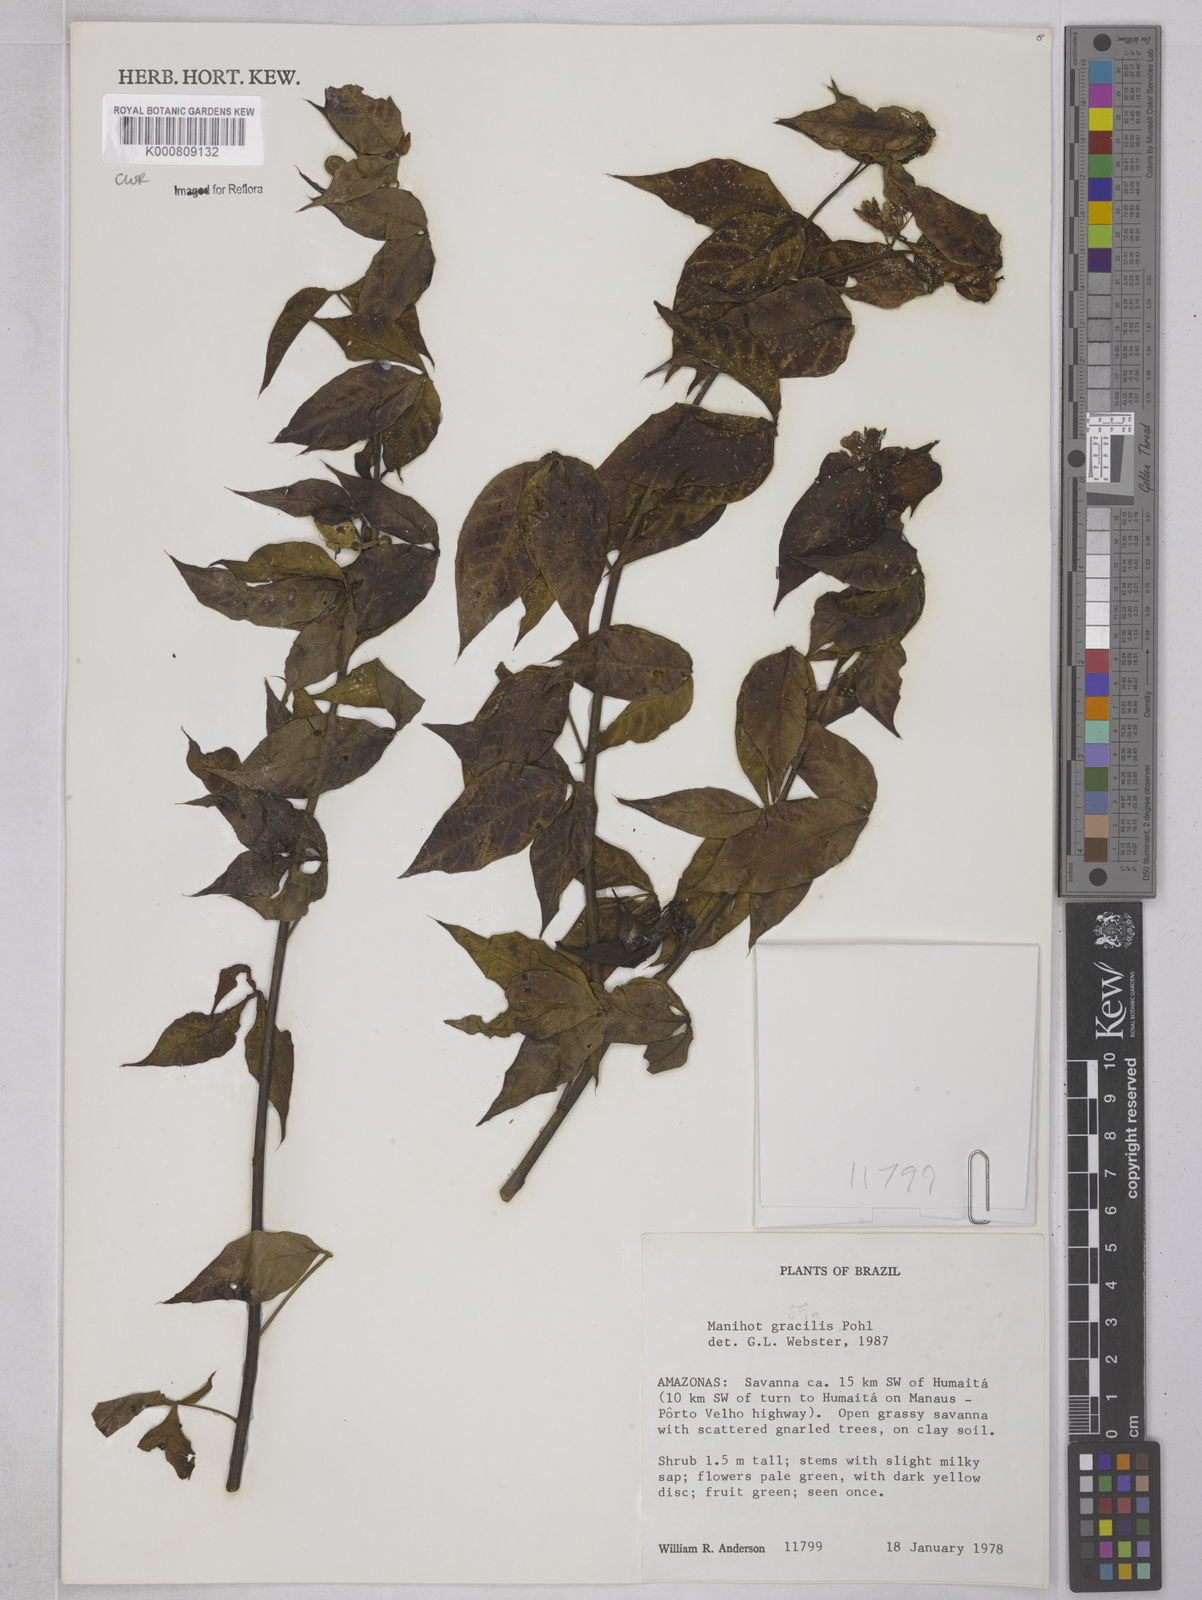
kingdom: Plantae
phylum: Tracheophyta
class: Magnoliopsida
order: Malpighiales
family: Euphorbiaceae
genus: Manihot
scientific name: Manihot gracilis
